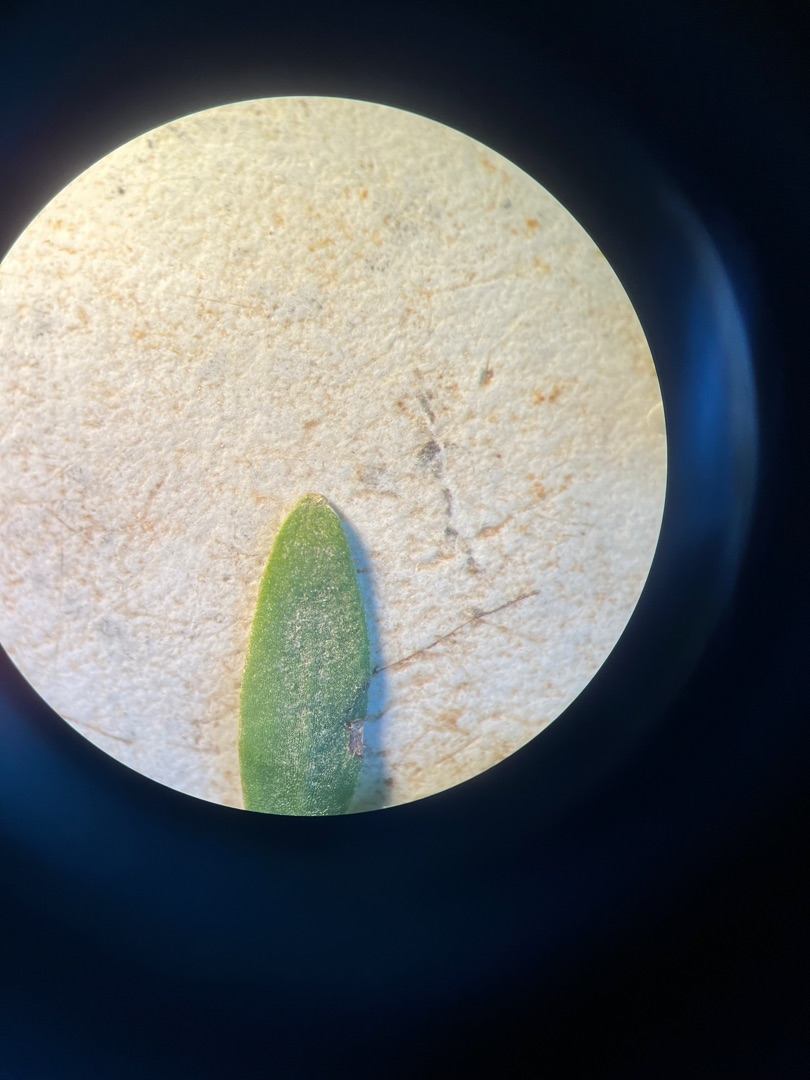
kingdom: Plantae
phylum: Tracheophyta
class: Magnoliopsida
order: Gentianales
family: Rubiaceae
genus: Galium
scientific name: Galium palustre
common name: Kær-snerre
